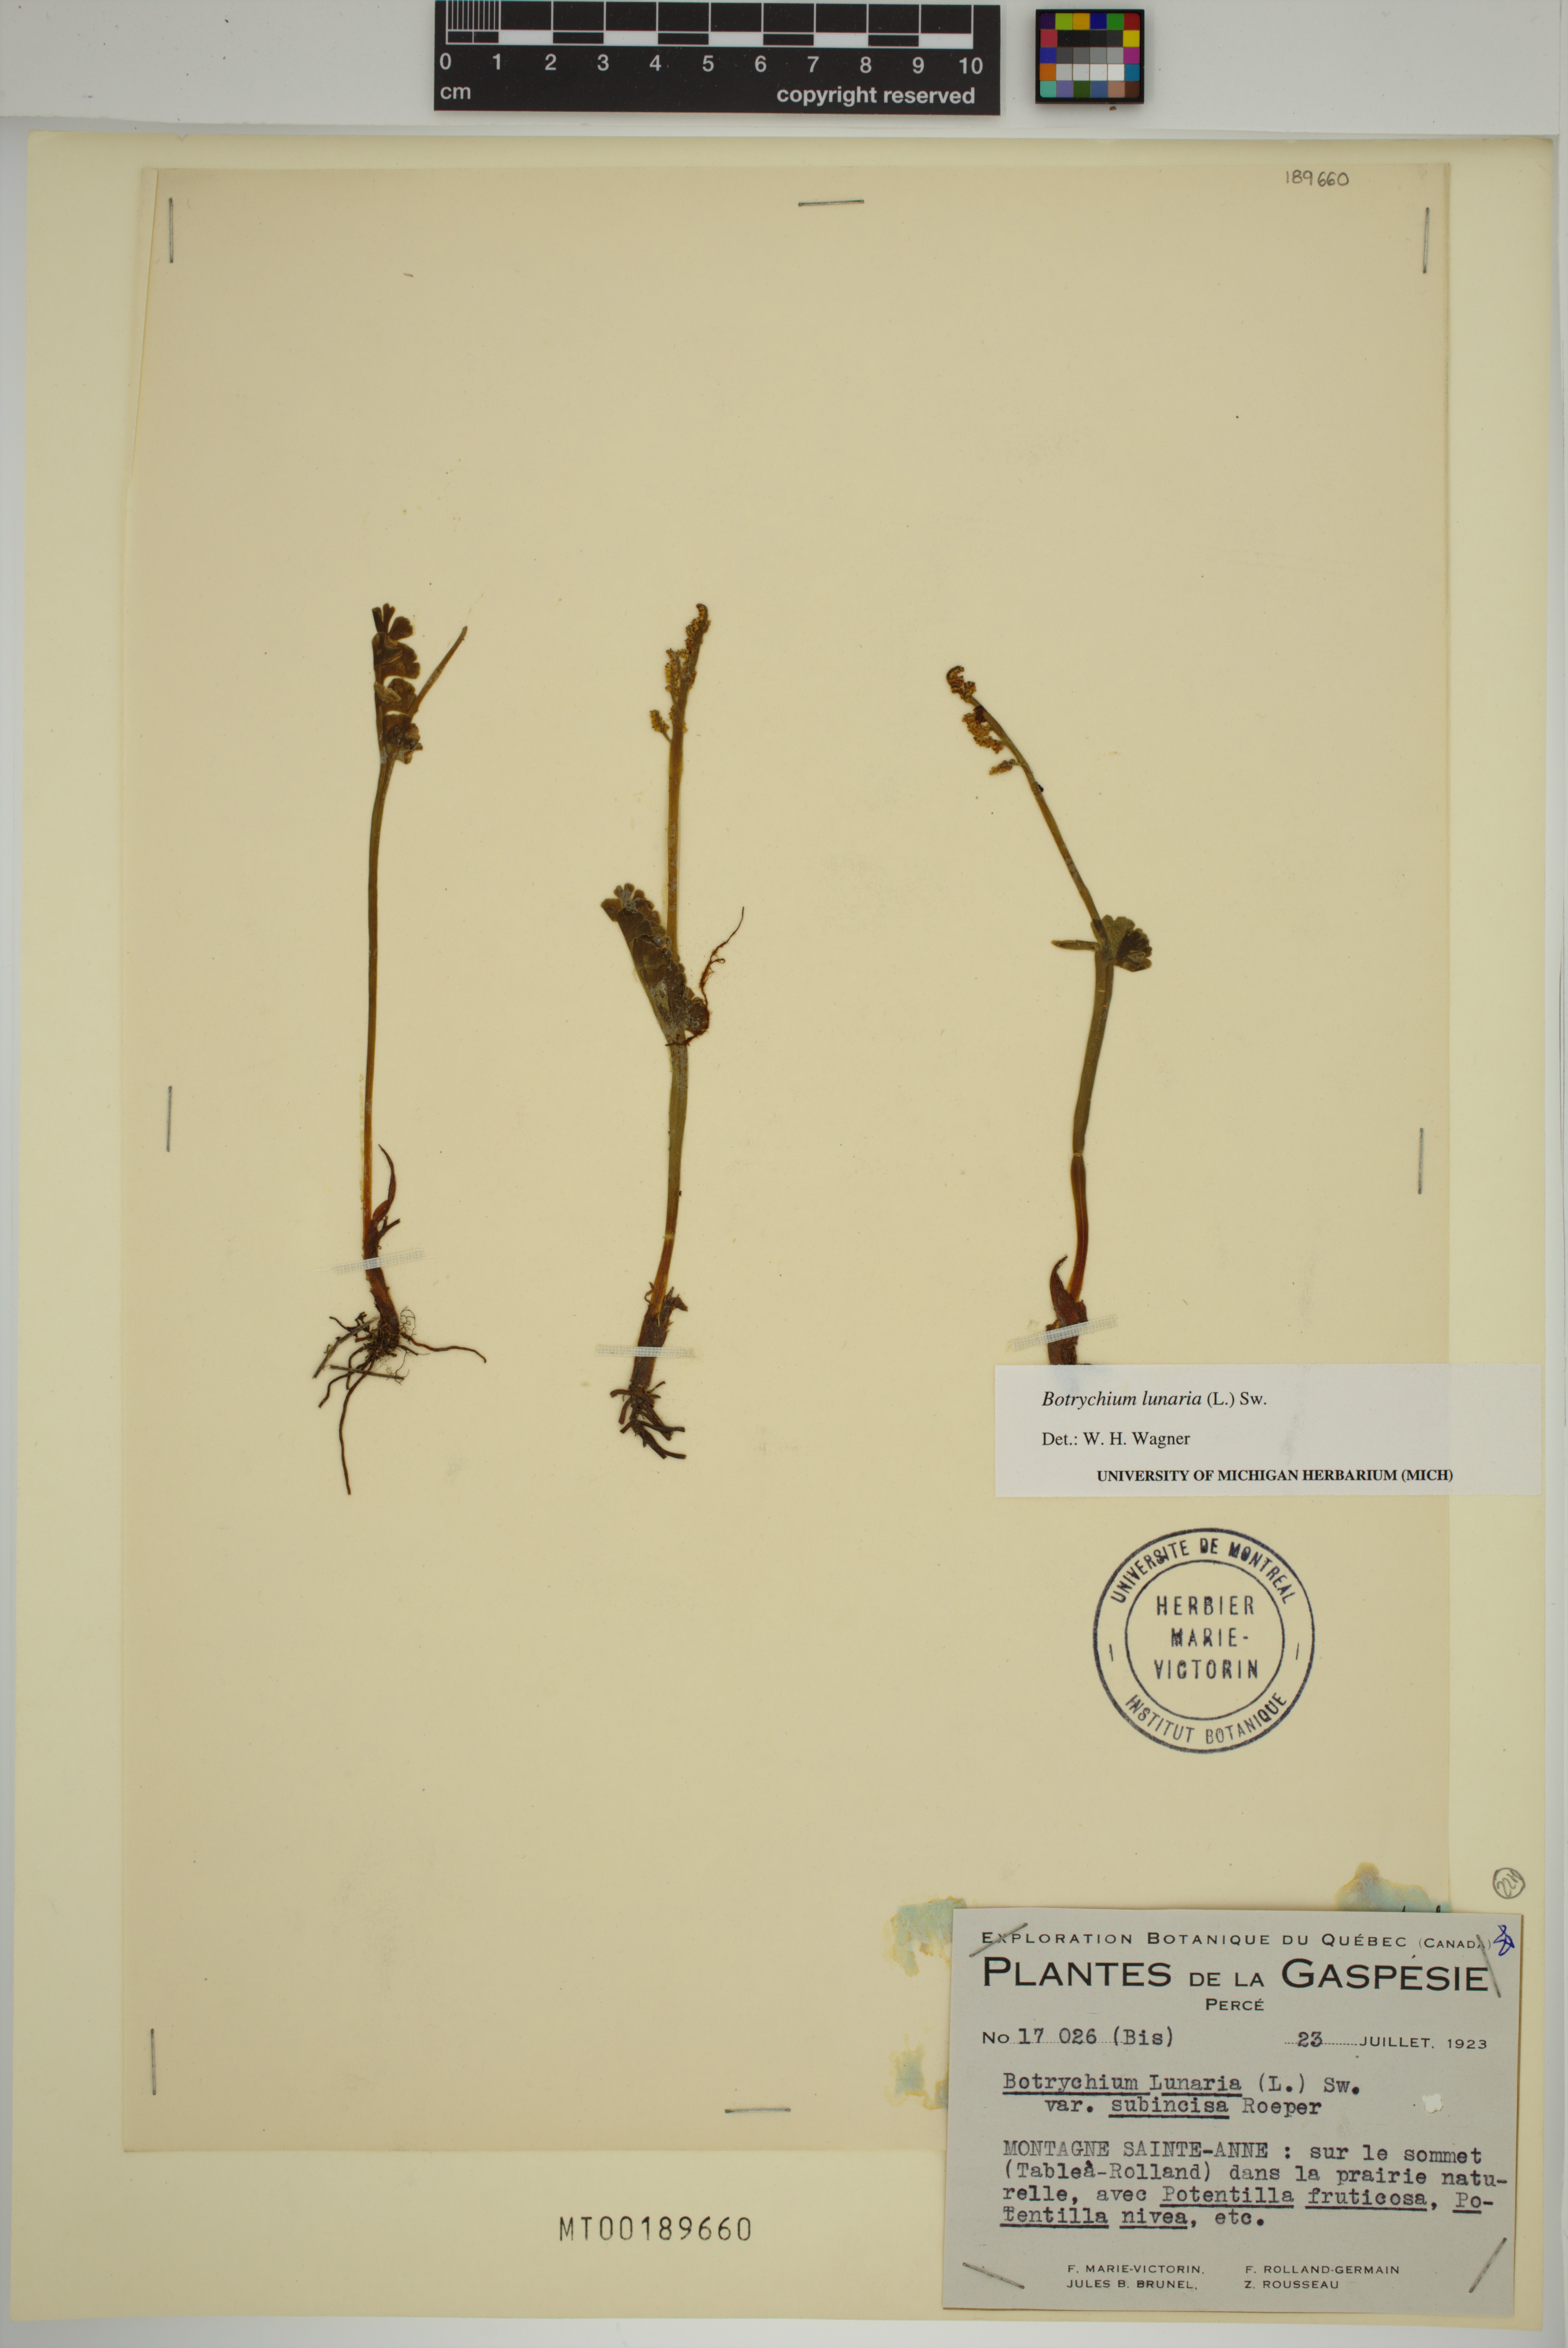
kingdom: Plantae
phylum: Tracheophyta
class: Polypodiopsida
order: Ophioglossales
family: Ophioglossaceae
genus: Botrychium
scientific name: Botrychium lunaria
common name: Moonwort
